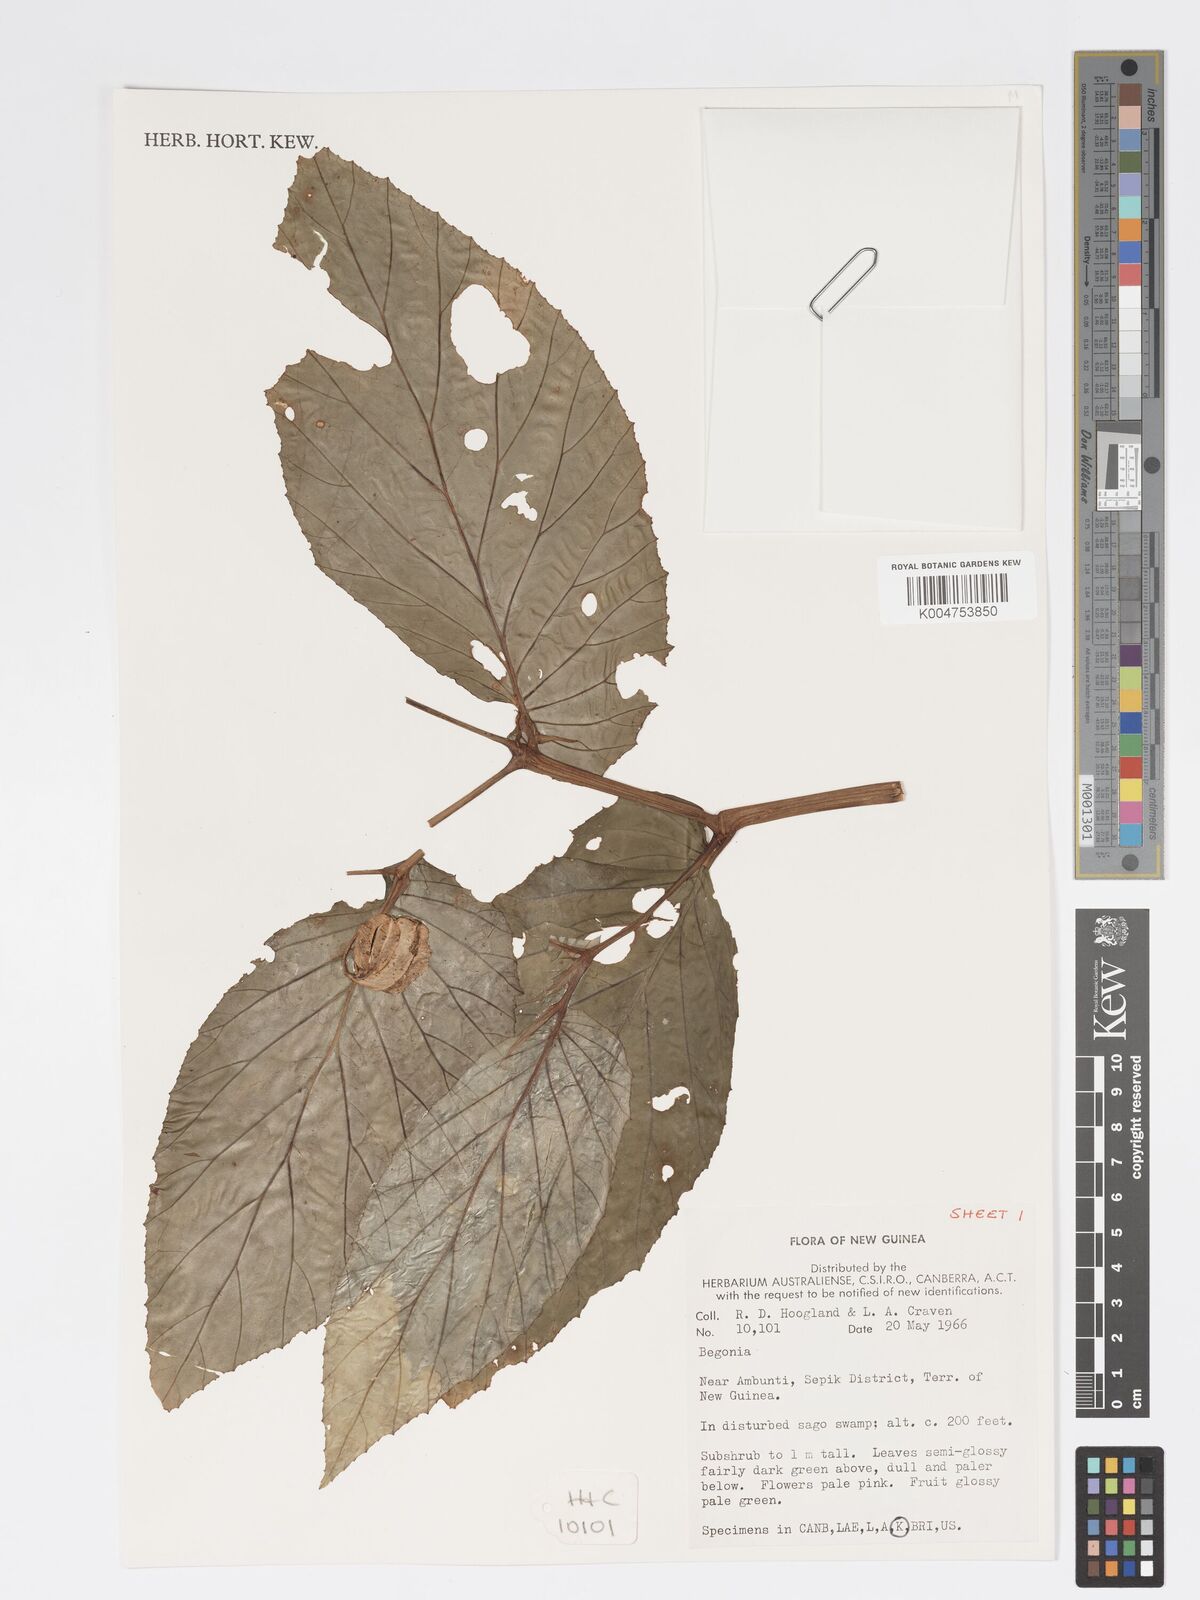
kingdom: Plantae
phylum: Tracheophyta
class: Magnoliopsida
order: Cucurbitales
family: Begoniaceae
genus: Begonia
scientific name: Begonia
